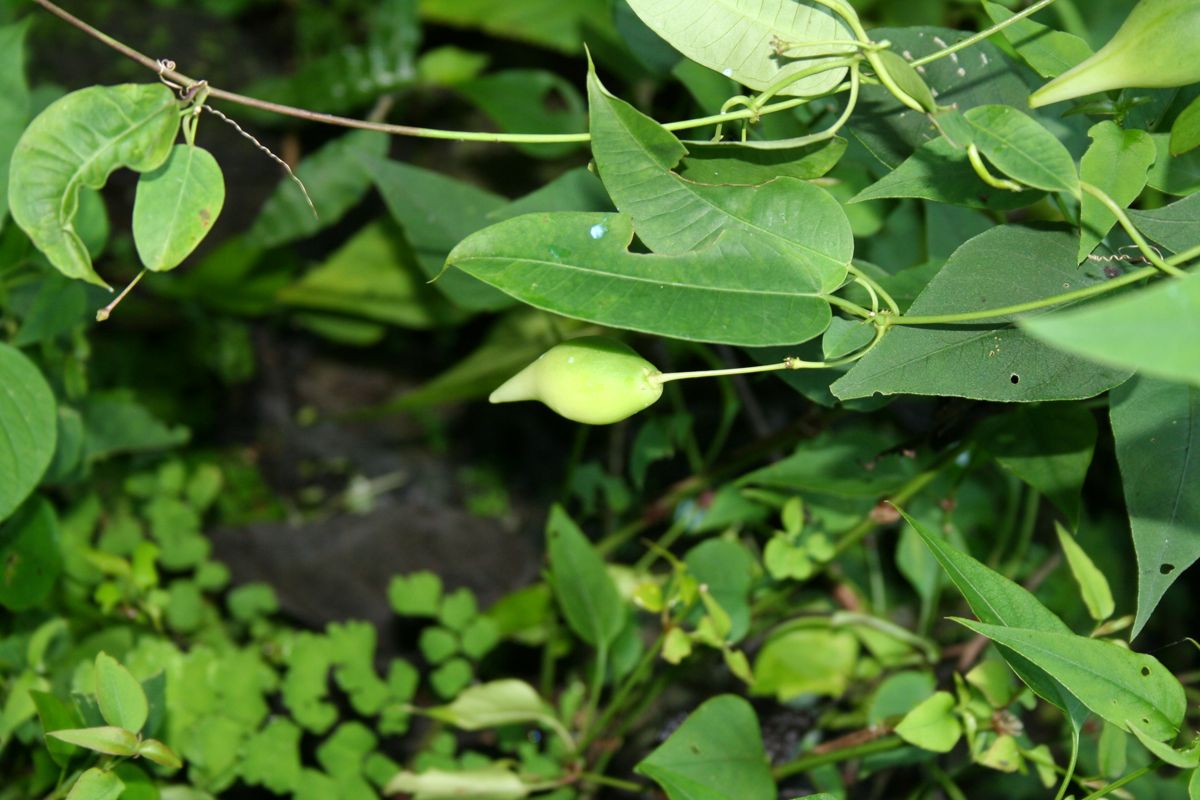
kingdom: Plantae
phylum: Tracheophyta
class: Magnoliopsida
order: Gentianales
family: Apocynaceae
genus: Vailia
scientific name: Vailia anomala
